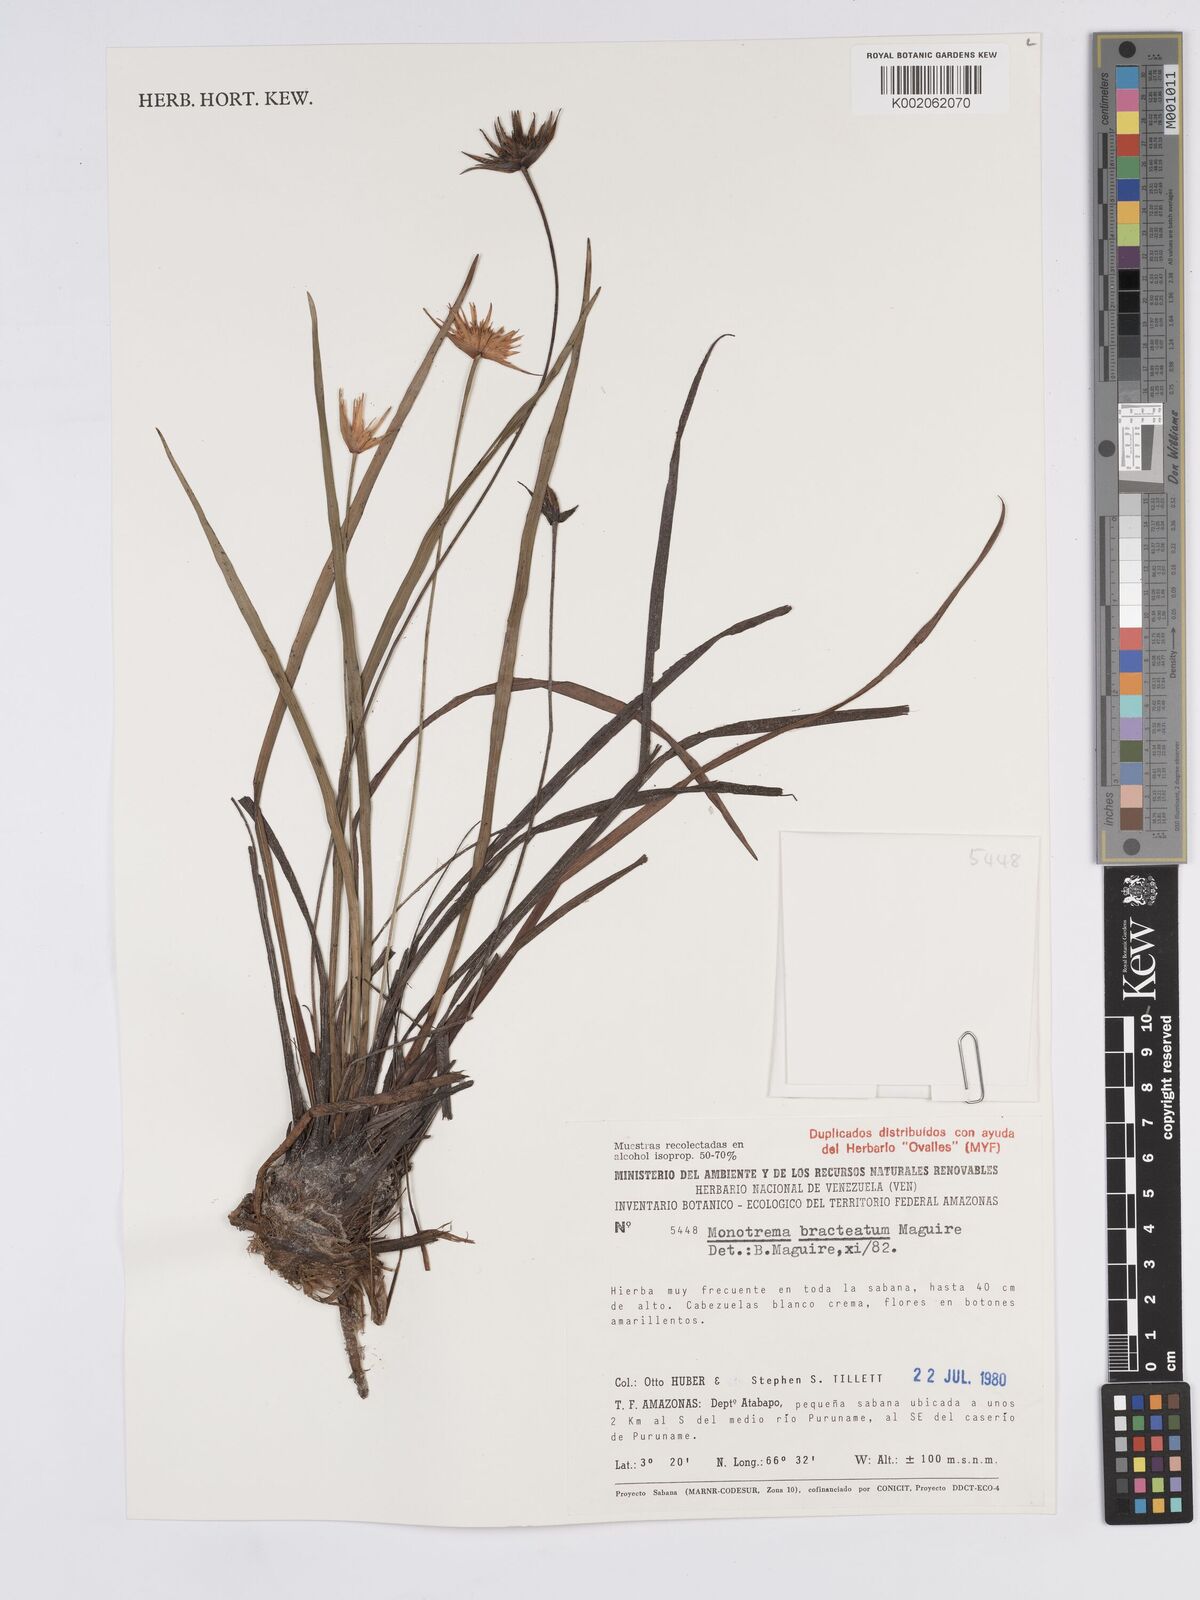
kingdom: Plantae
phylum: Tracheophyta
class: Liliopsida
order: Poales
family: Rapateaceae
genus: Monotrema
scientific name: Monotrema bracteatum
